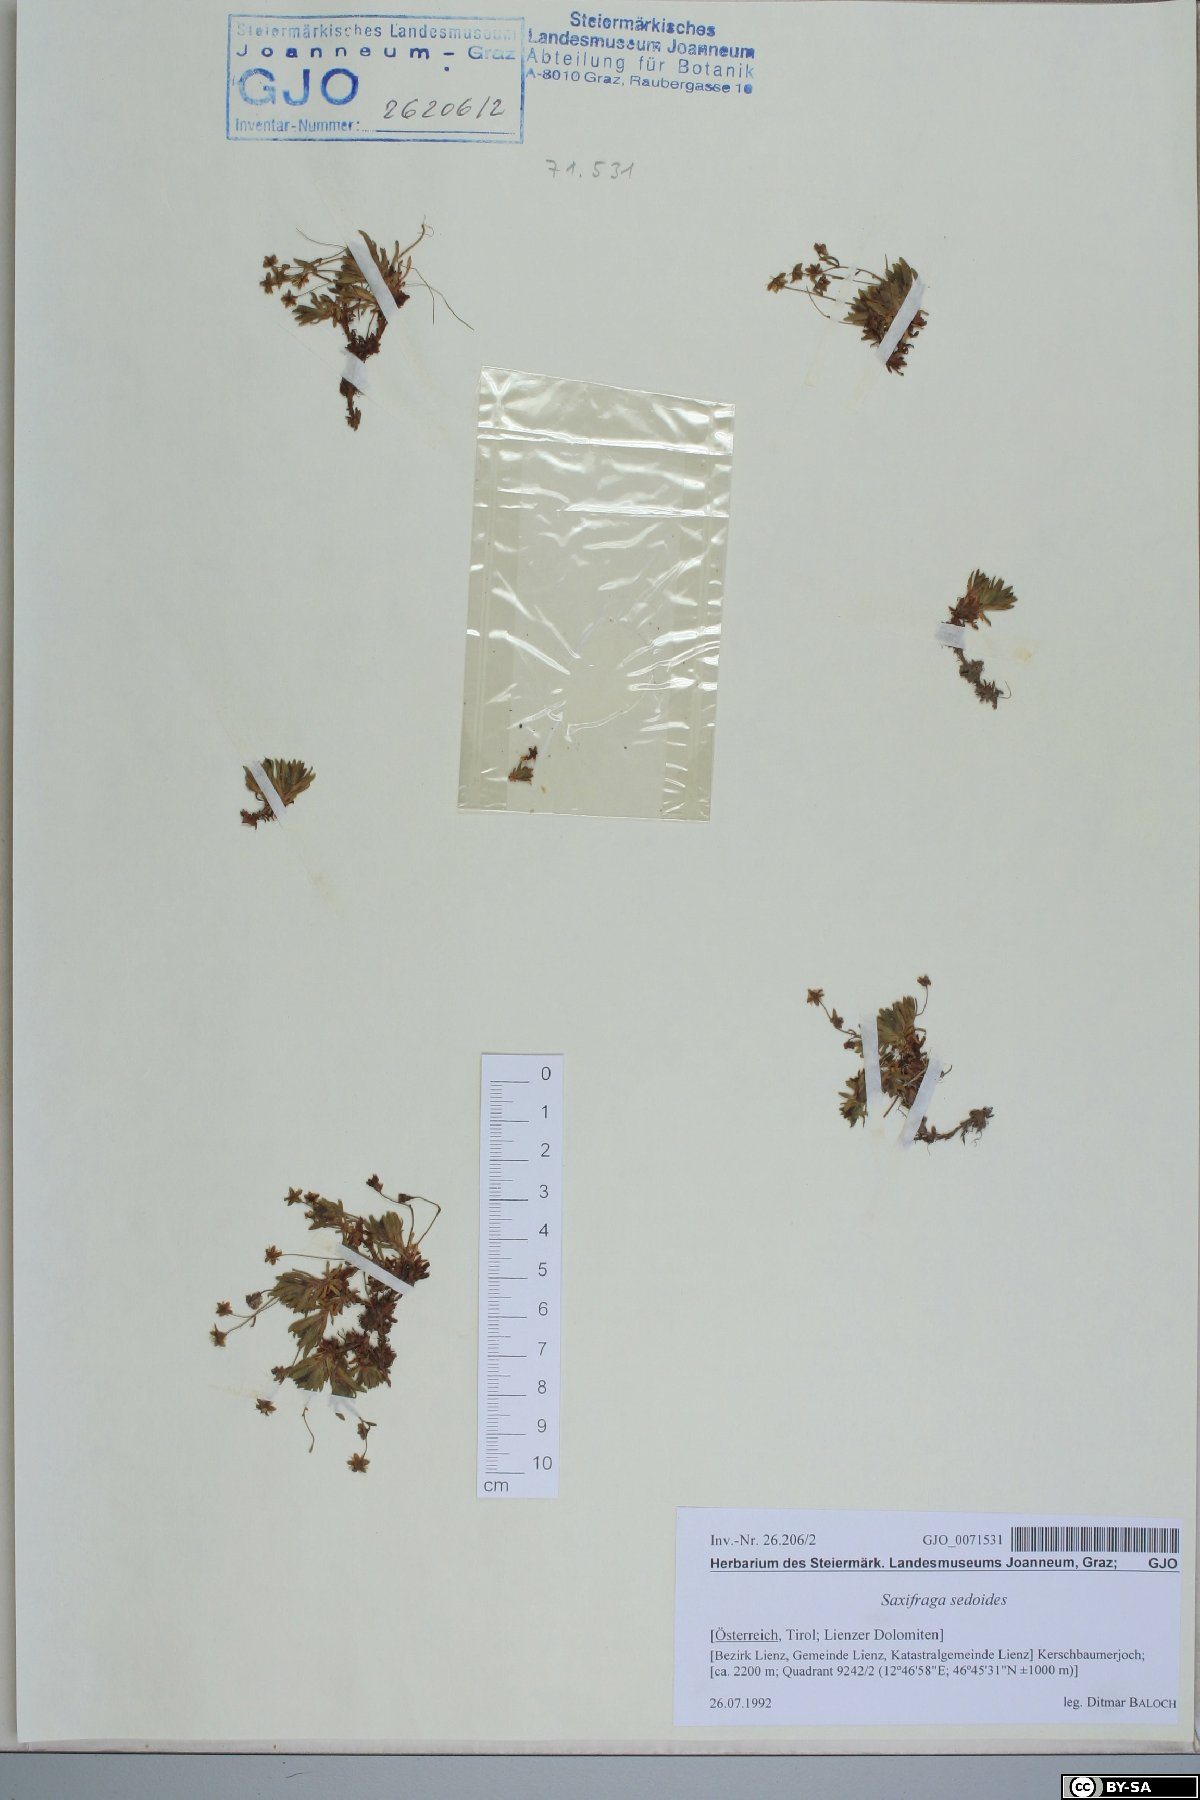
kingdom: Plantae
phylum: Tracheophyta
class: Magnoliopsida
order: Saxifragales
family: Saxifragaceae
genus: Saxifraga
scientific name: Saxifraga sedoides
